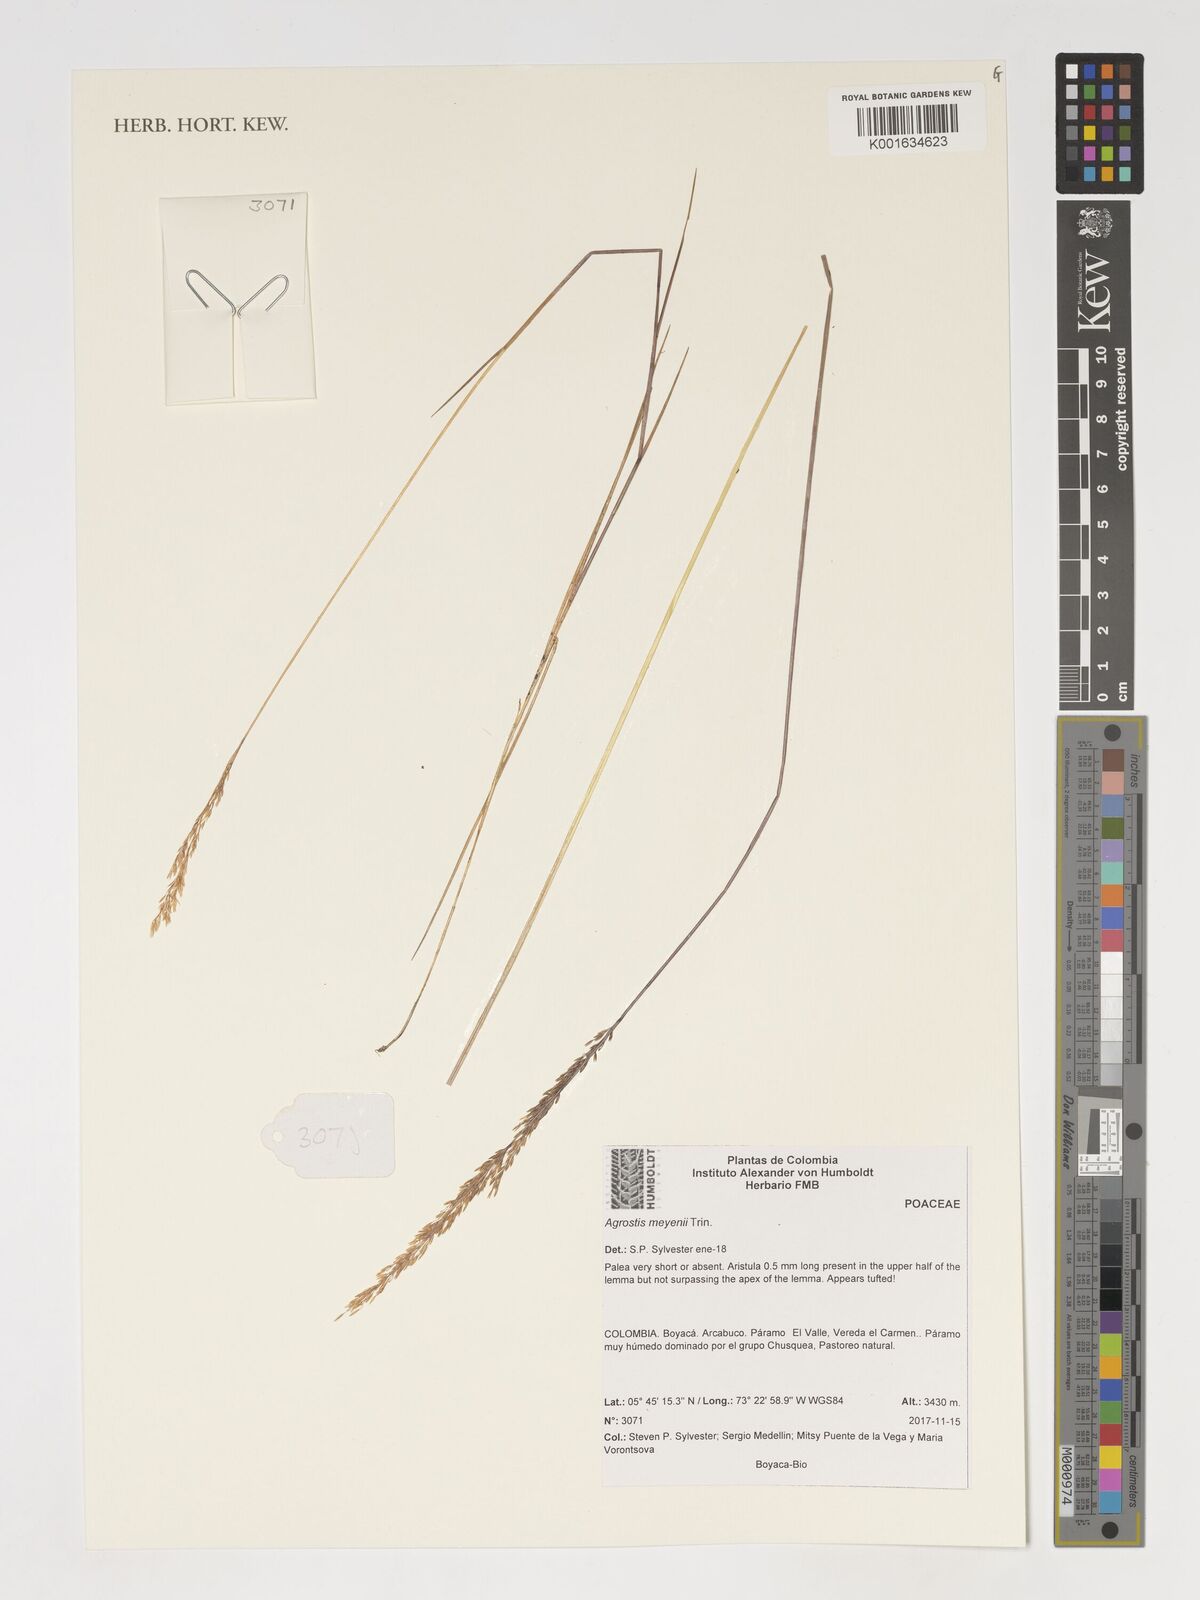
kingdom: Plantae
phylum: Tracheophyta
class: Liliopsida
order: Poales
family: Poaceae
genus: Agrostis
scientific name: Agrostis meyenii
